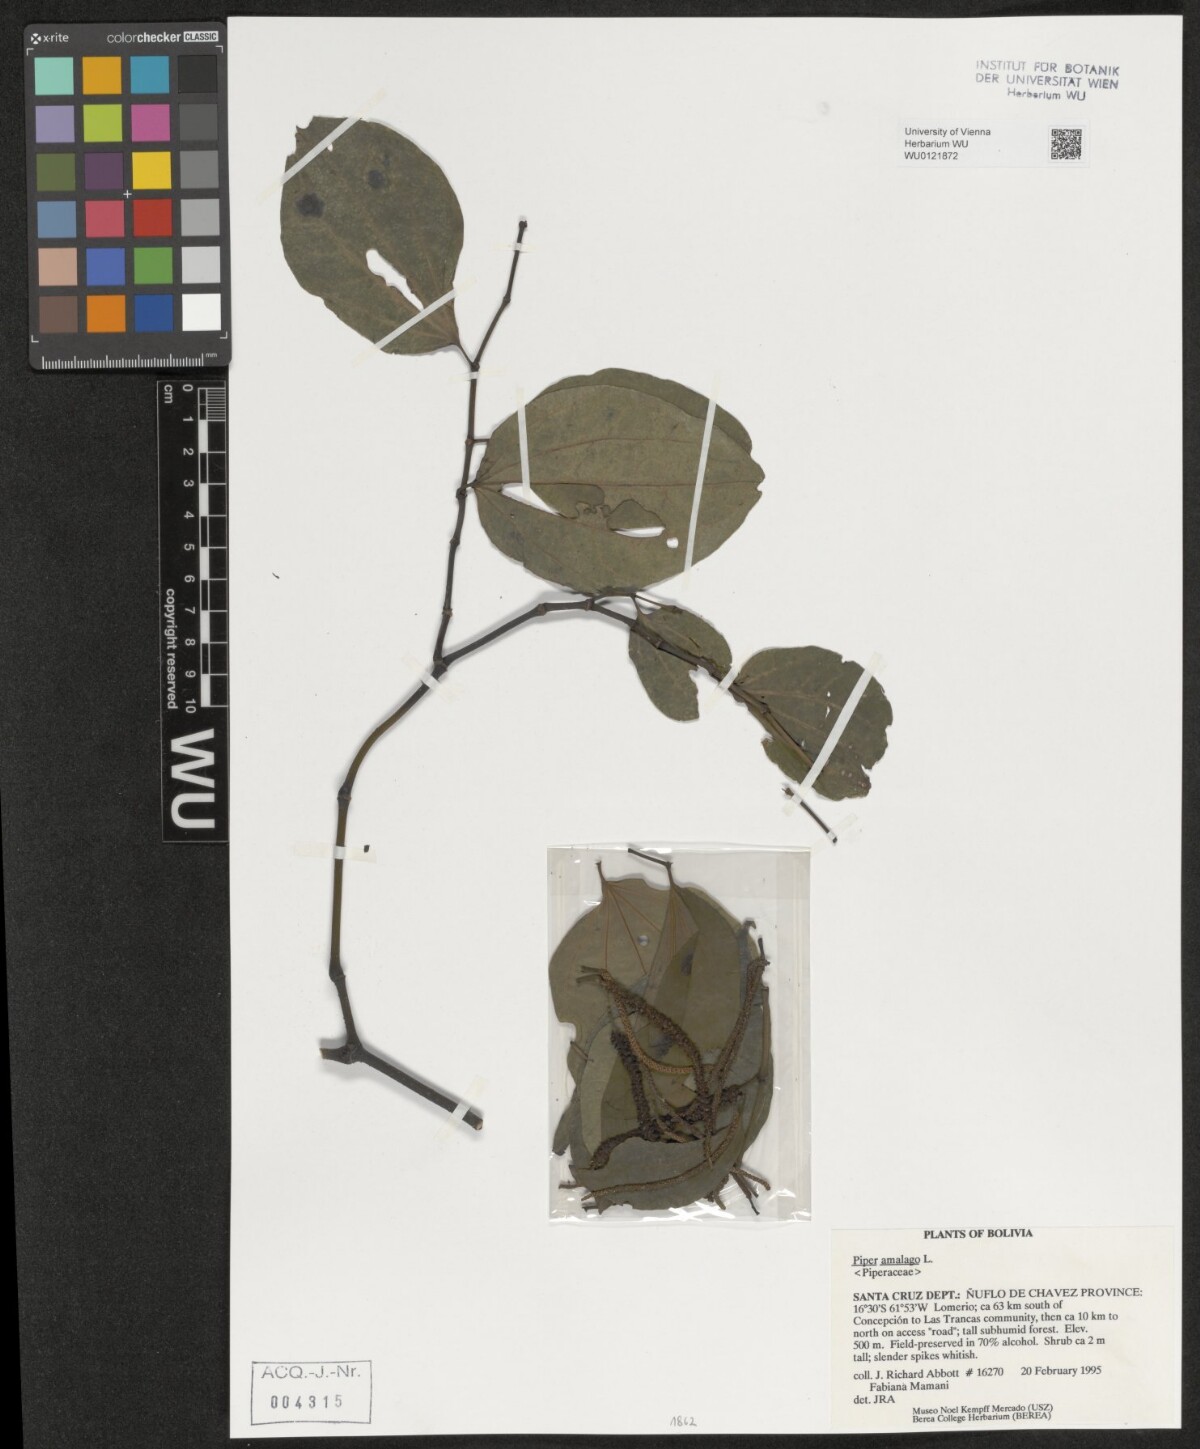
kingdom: Plantae
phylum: Tracheophyta
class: Magnoliopsida
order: Piperales
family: Piperaceae
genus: Piper
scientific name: Piper amalago
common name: Pepper-elder
